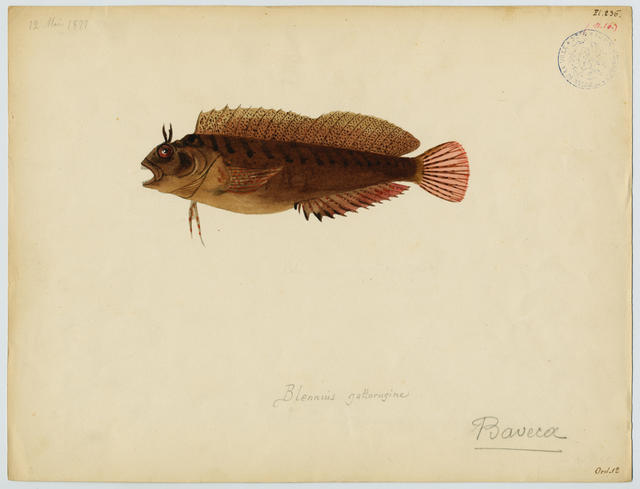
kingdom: Animalia
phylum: Chordata
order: Perciformes
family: Blenniidae
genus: Parablennius
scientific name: Parablennius sanguinolentus
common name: Black sea blenny
